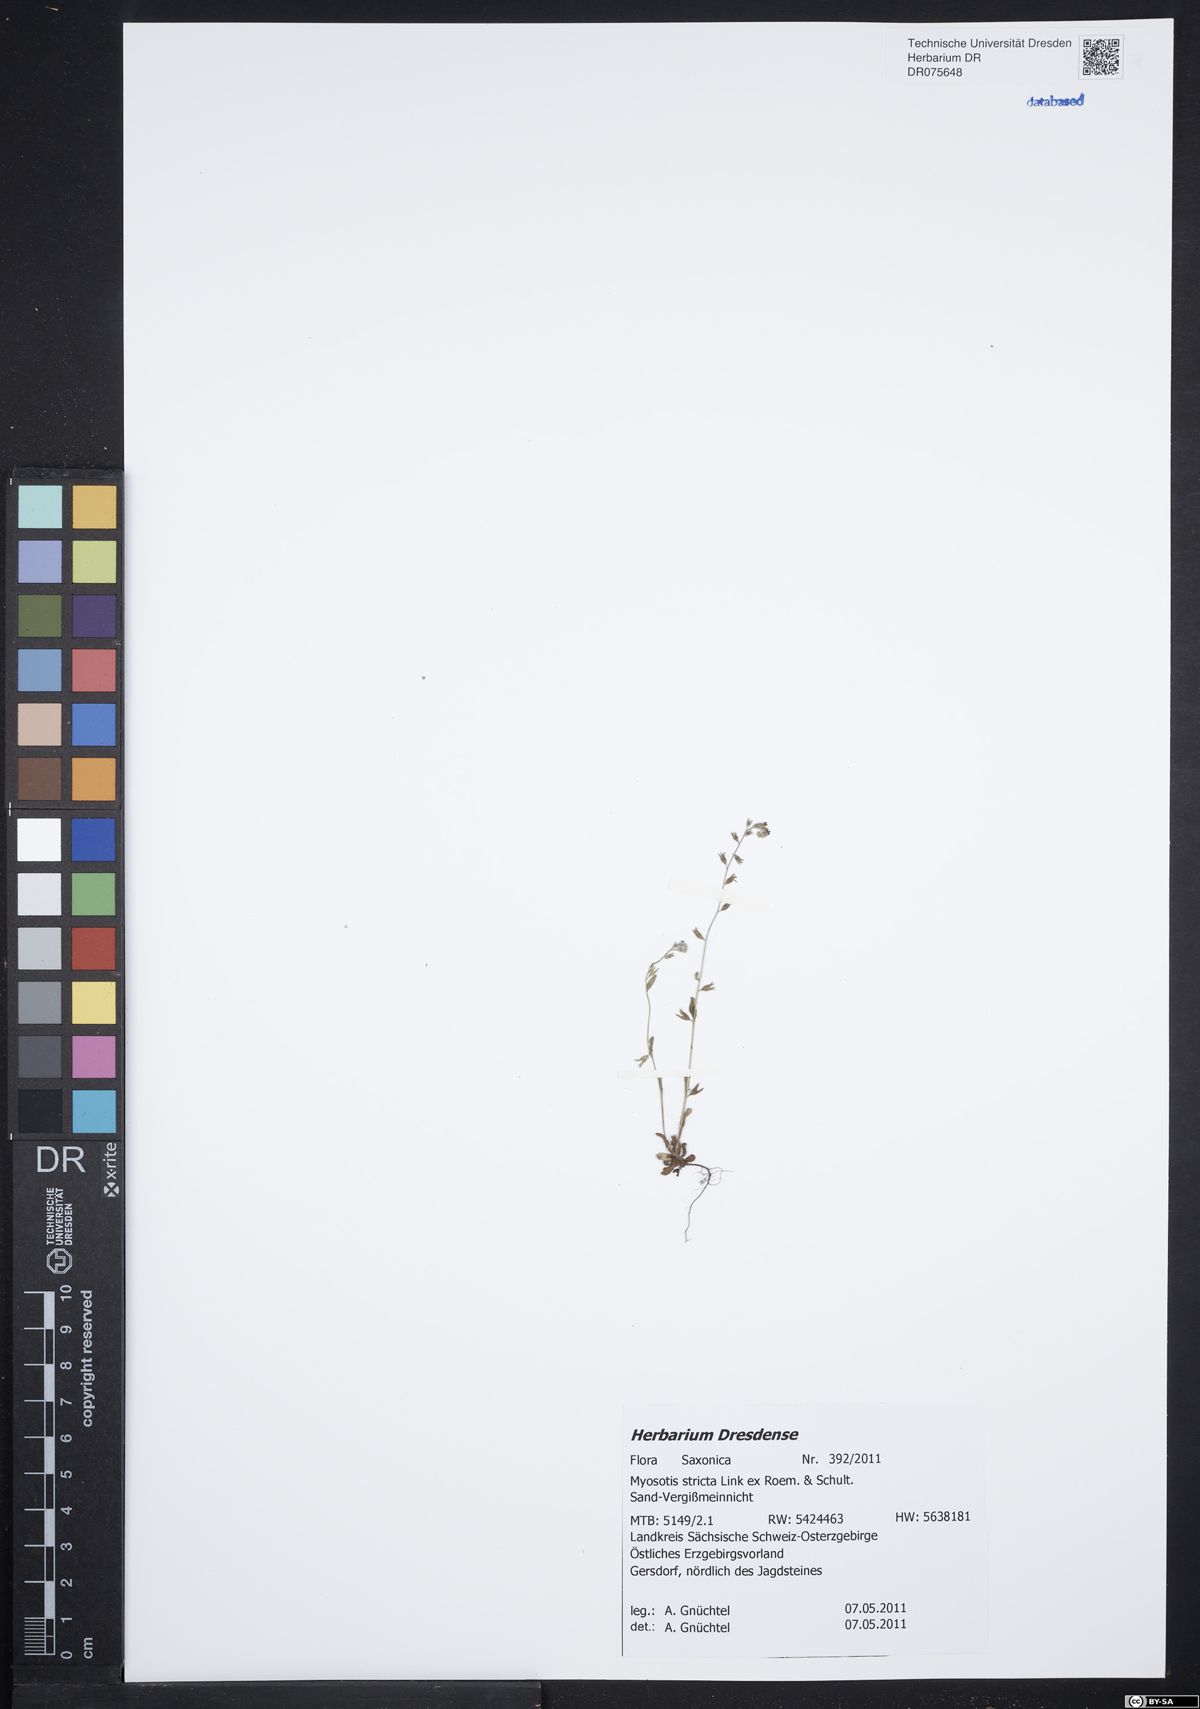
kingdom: Plantae
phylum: Tracheophyta
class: Magnoliopsida
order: Boraginales
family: Boraginaceae
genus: Myosotis
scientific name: Myosotis stricta
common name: Strict forget-me-not
